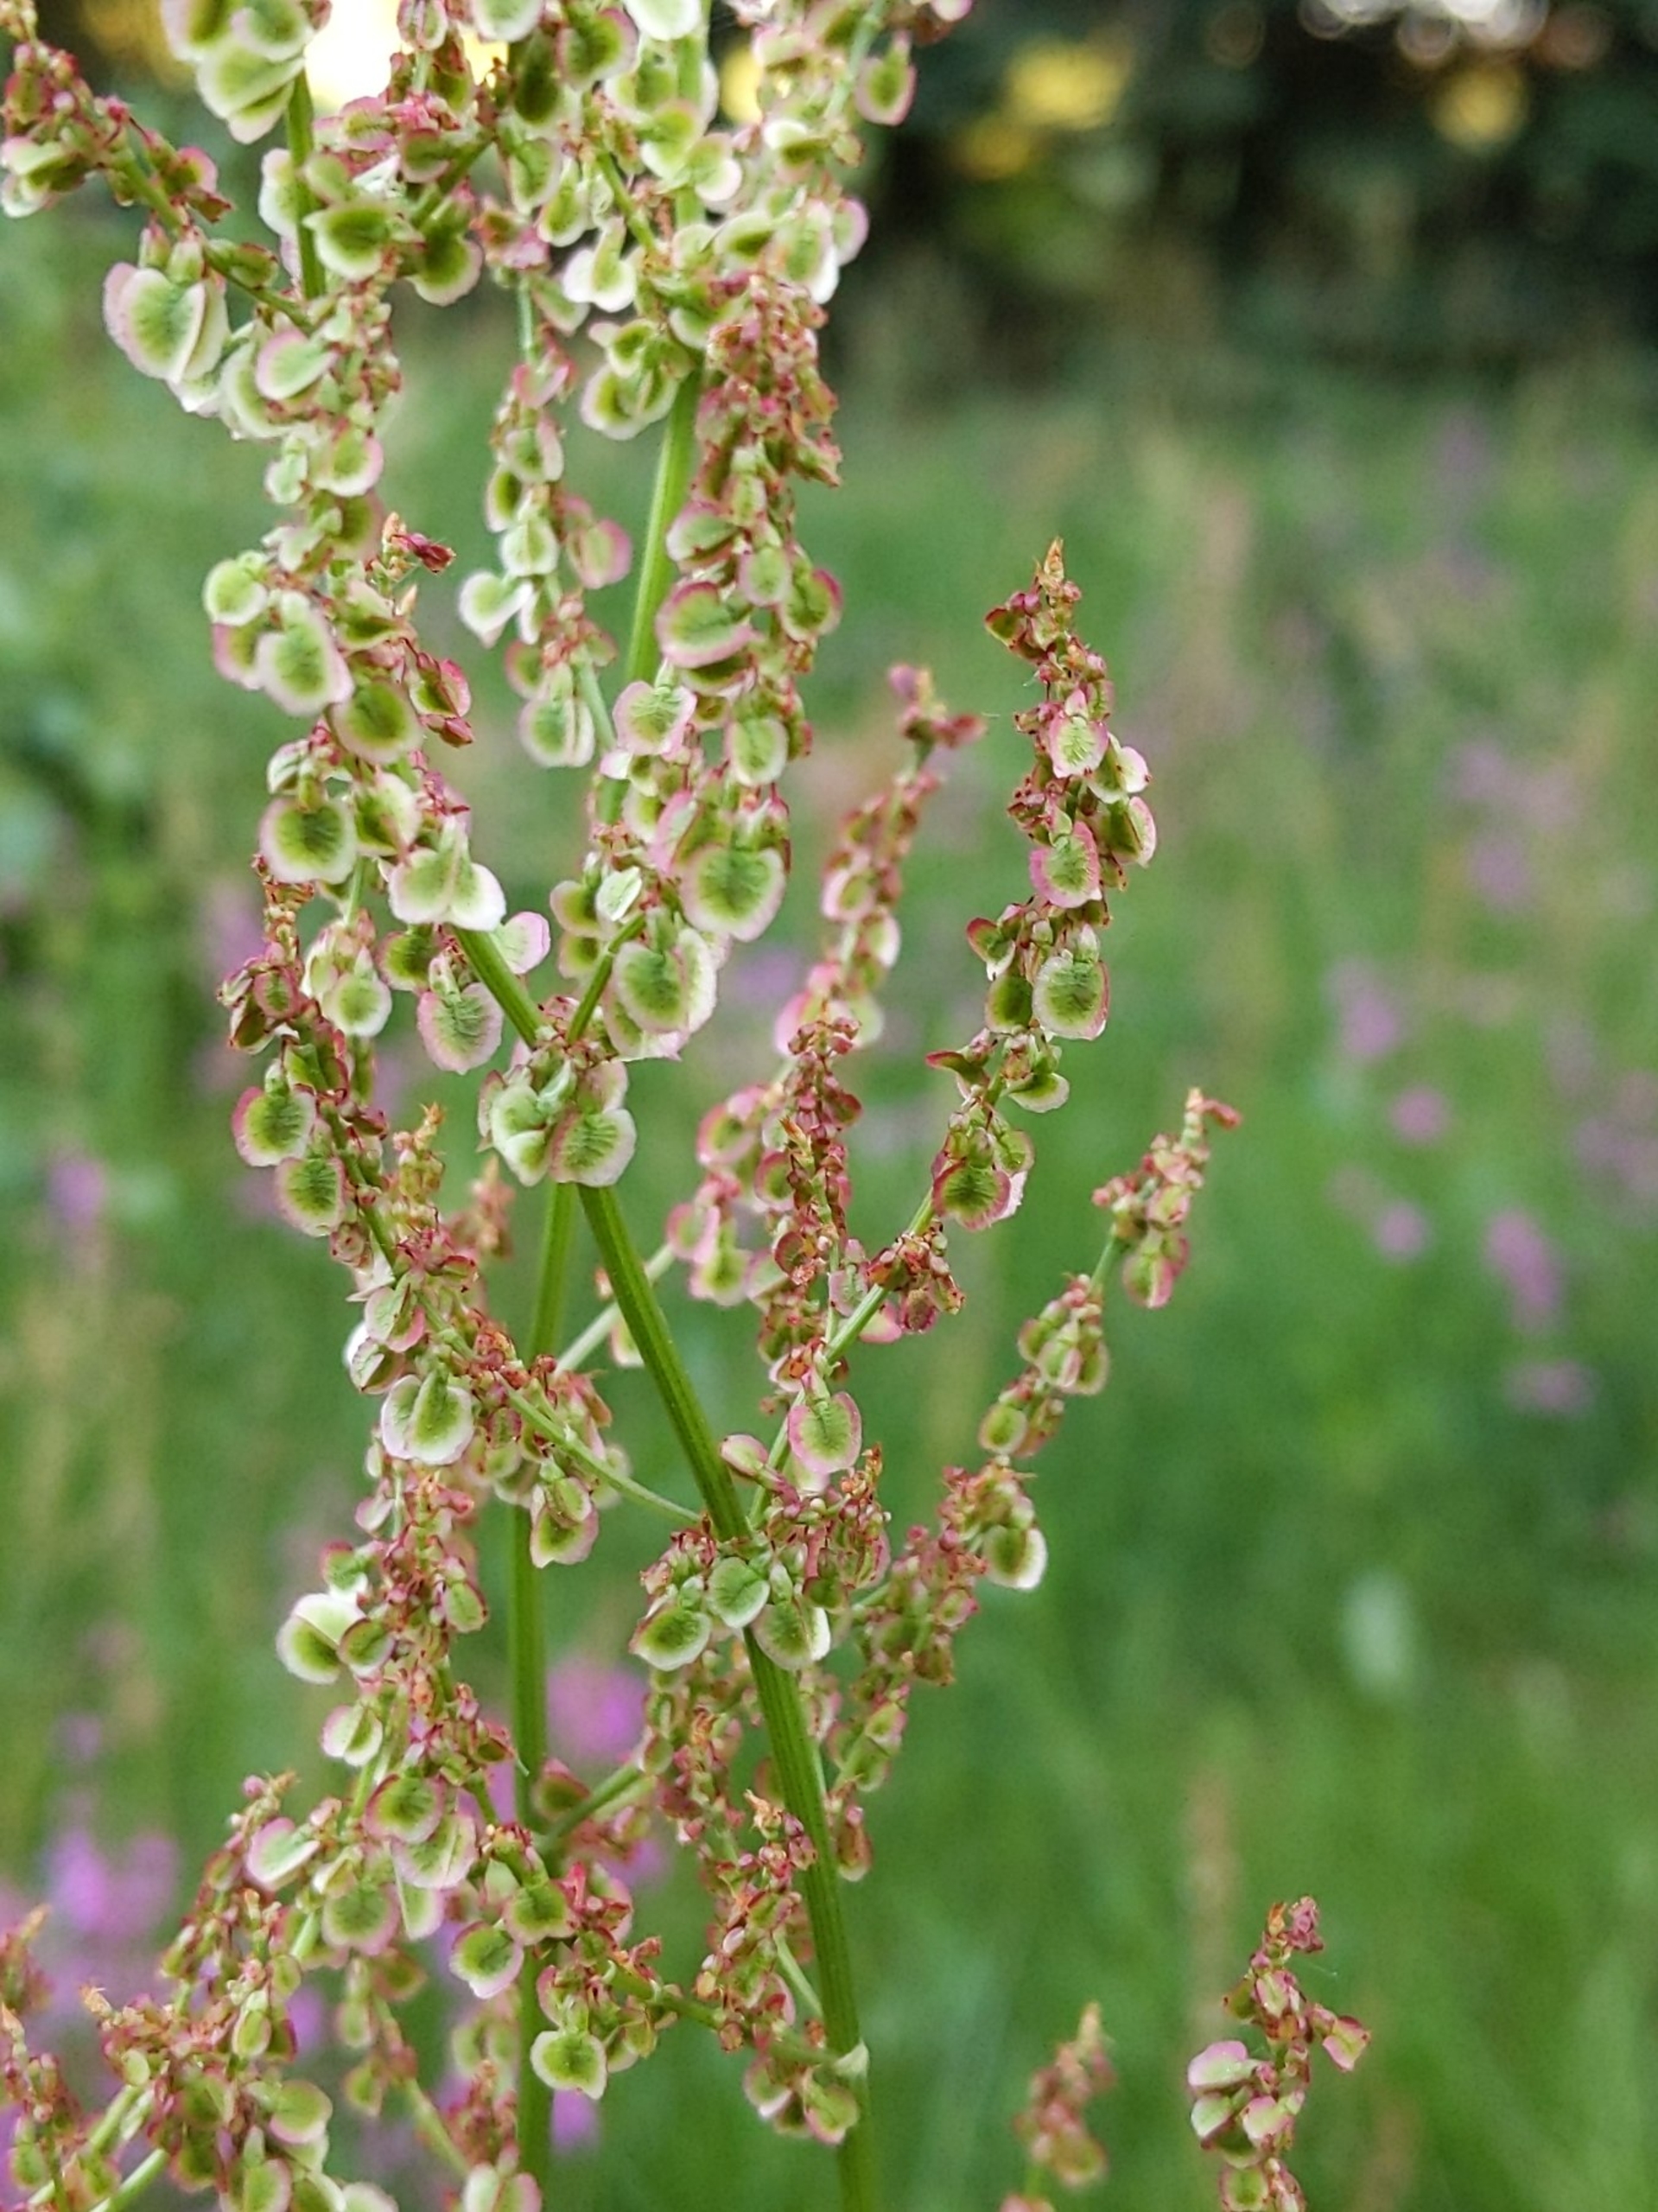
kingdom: Plantae
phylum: Tracheophyta
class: Magnoliopsida
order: Caryophyllales
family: Polygonaceae
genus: Rumex
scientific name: Rumex acetosa
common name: Almindelig syre
